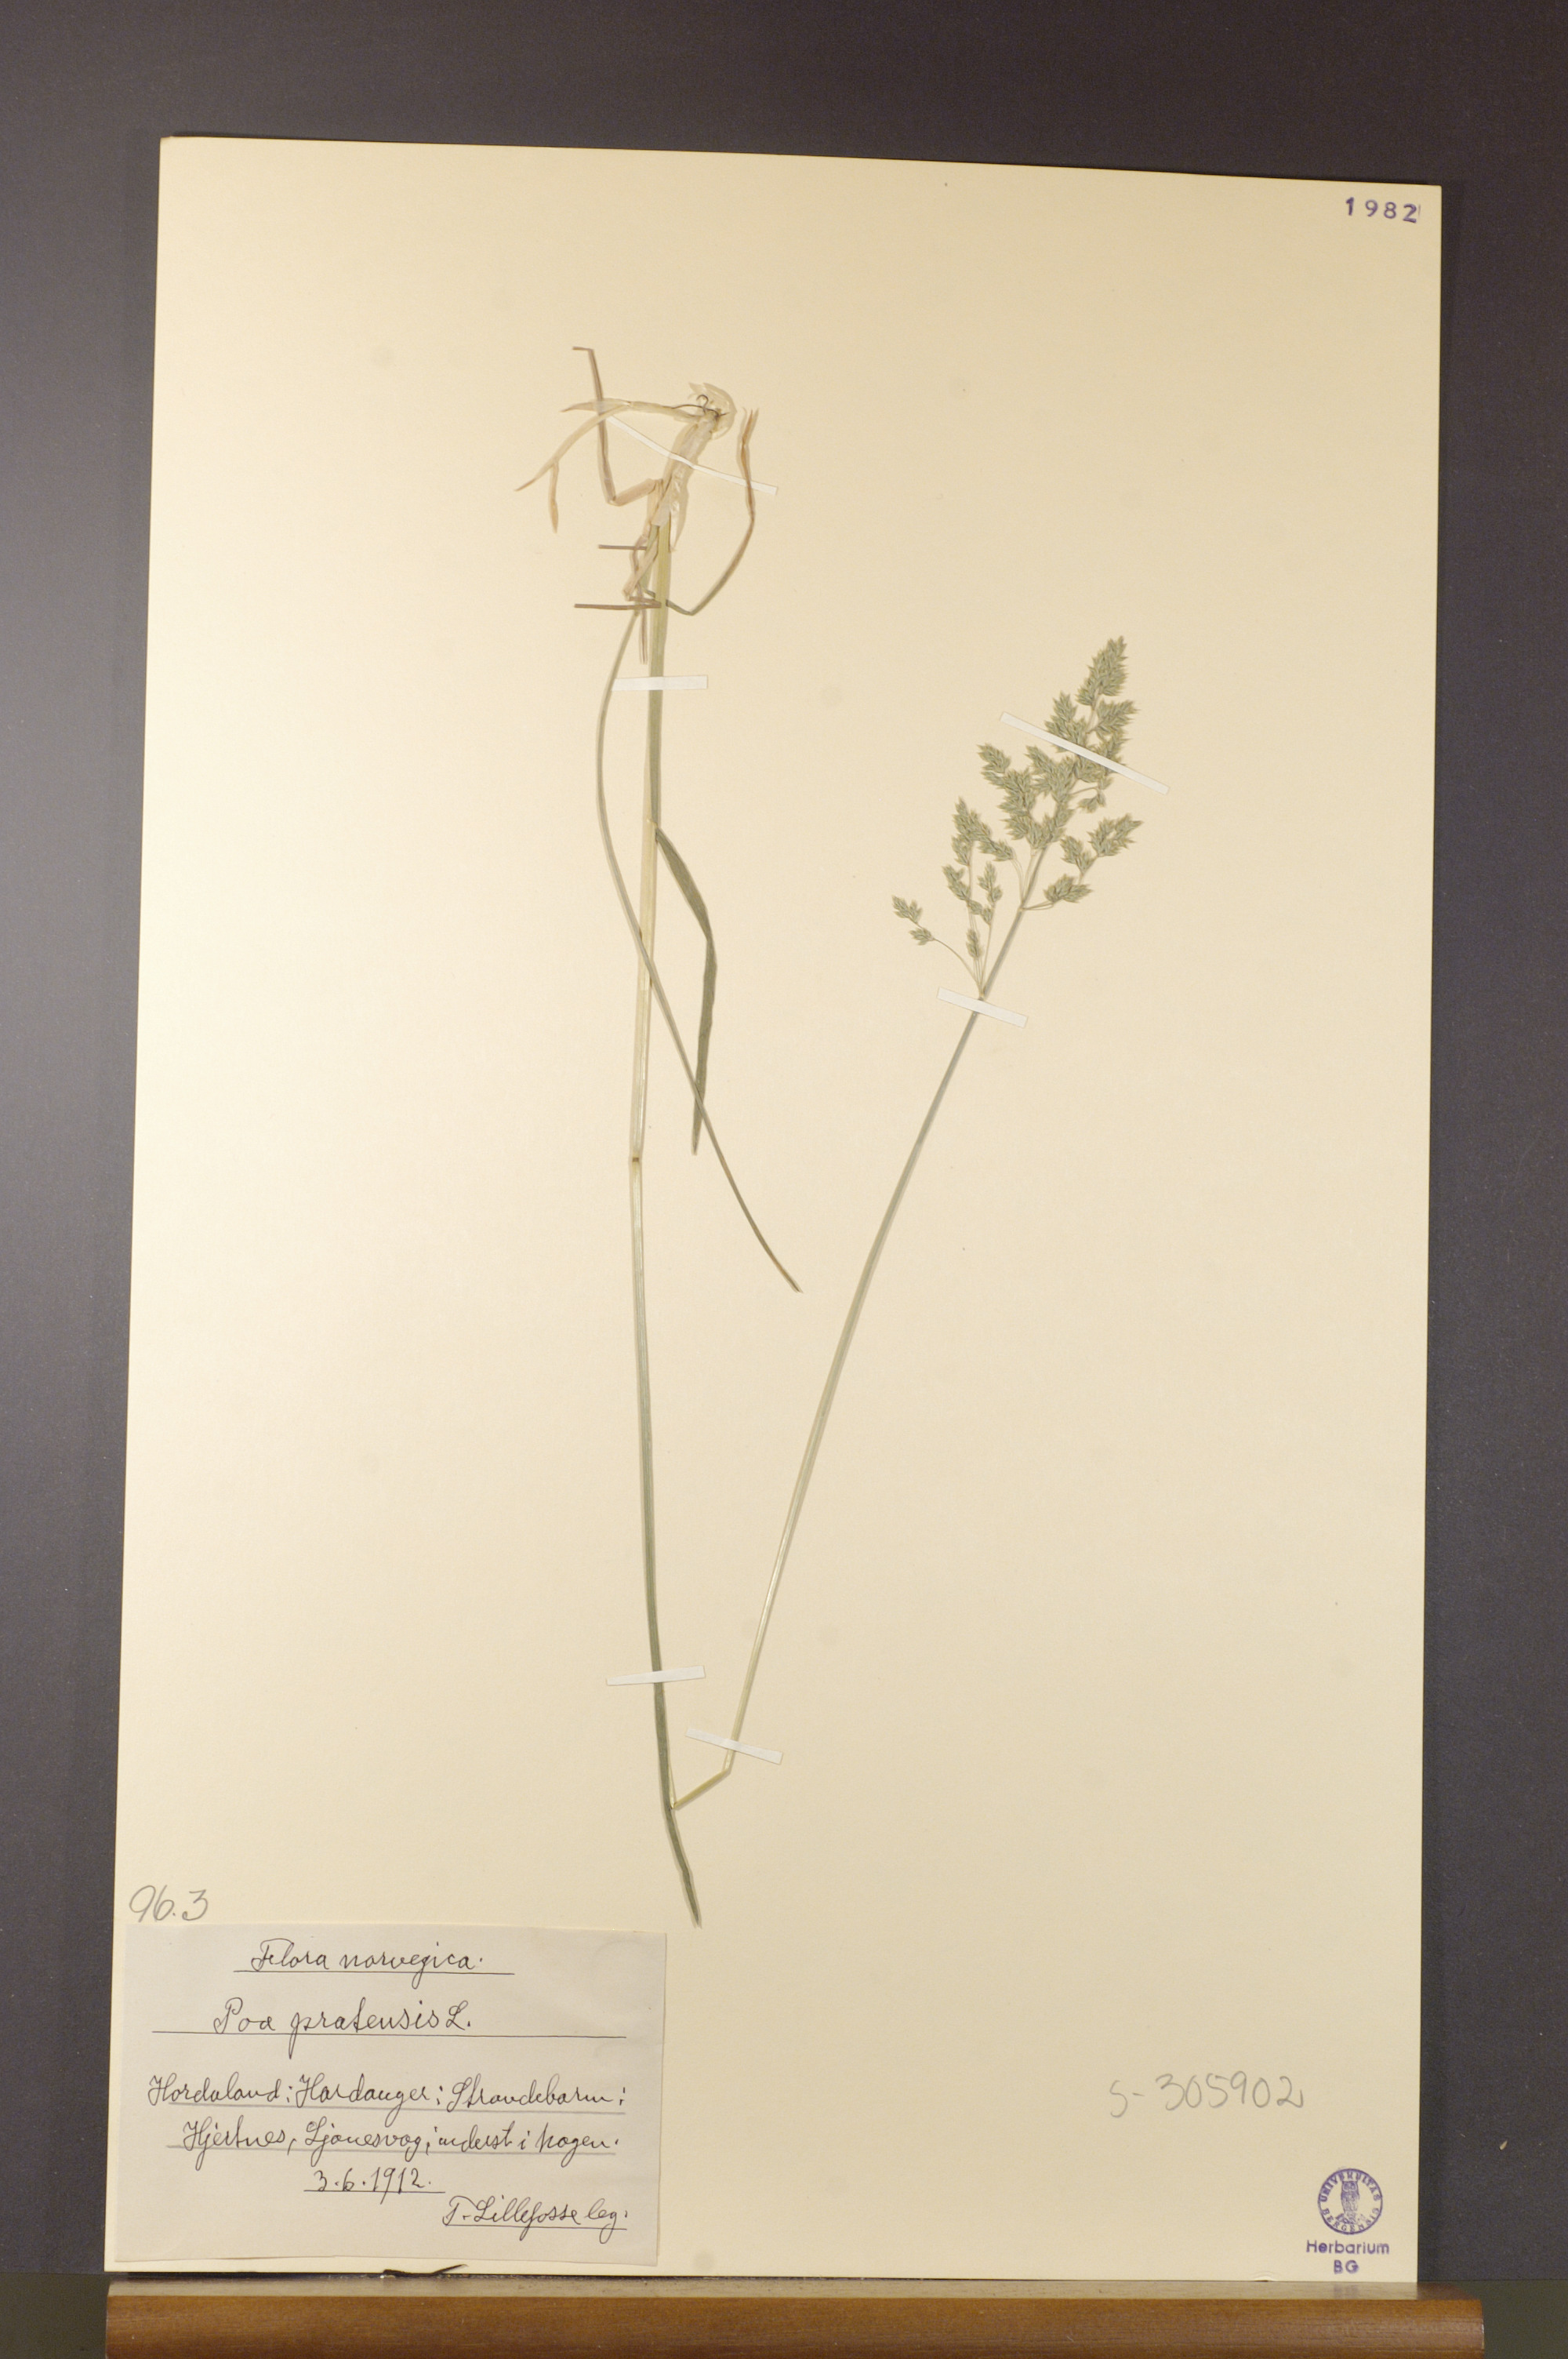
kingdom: Plantae
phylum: Tracheophyta
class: Liliopsida
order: Poales
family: Poaceae
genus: Poa
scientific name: Poa pratensis
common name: Kentucky bluegrass
